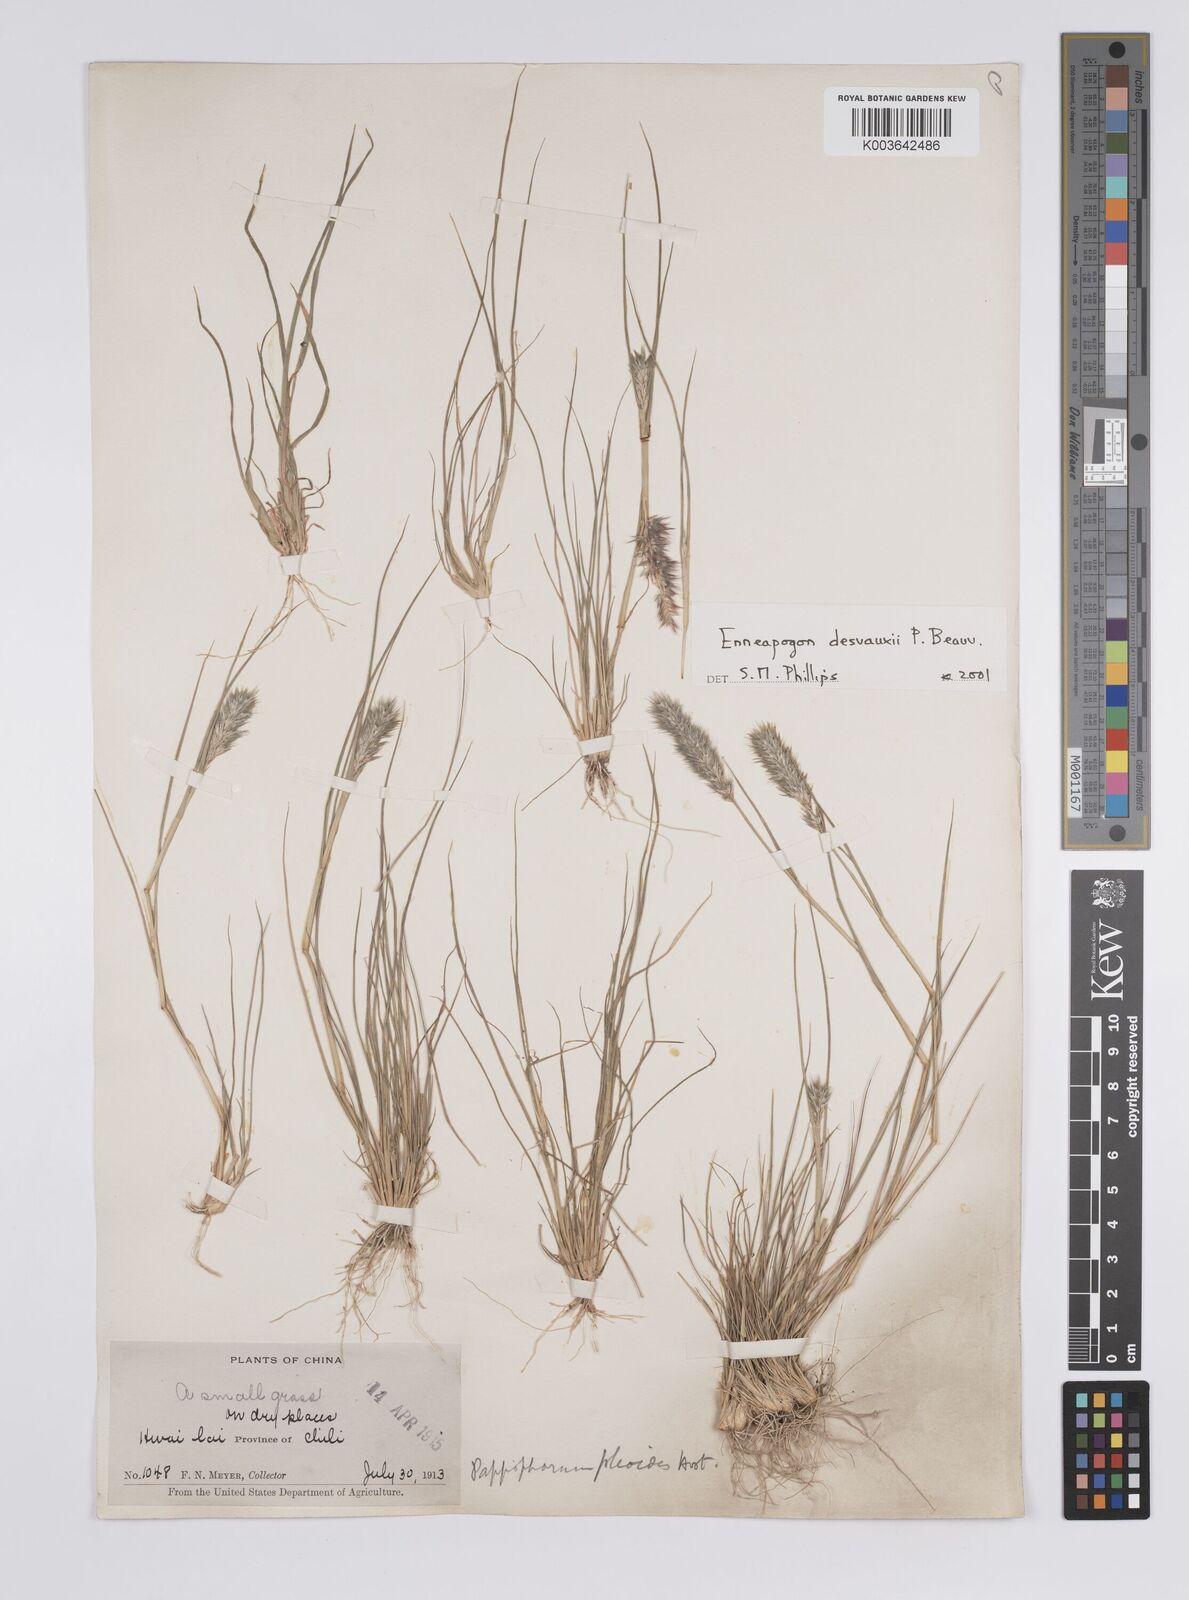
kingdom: Plantae
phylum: Tracheophyta
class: Liliopsida
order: Poales
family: Poaceae
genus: Enneapogon
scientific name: Enneapogon desvauxii
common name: Feather pappus grass
